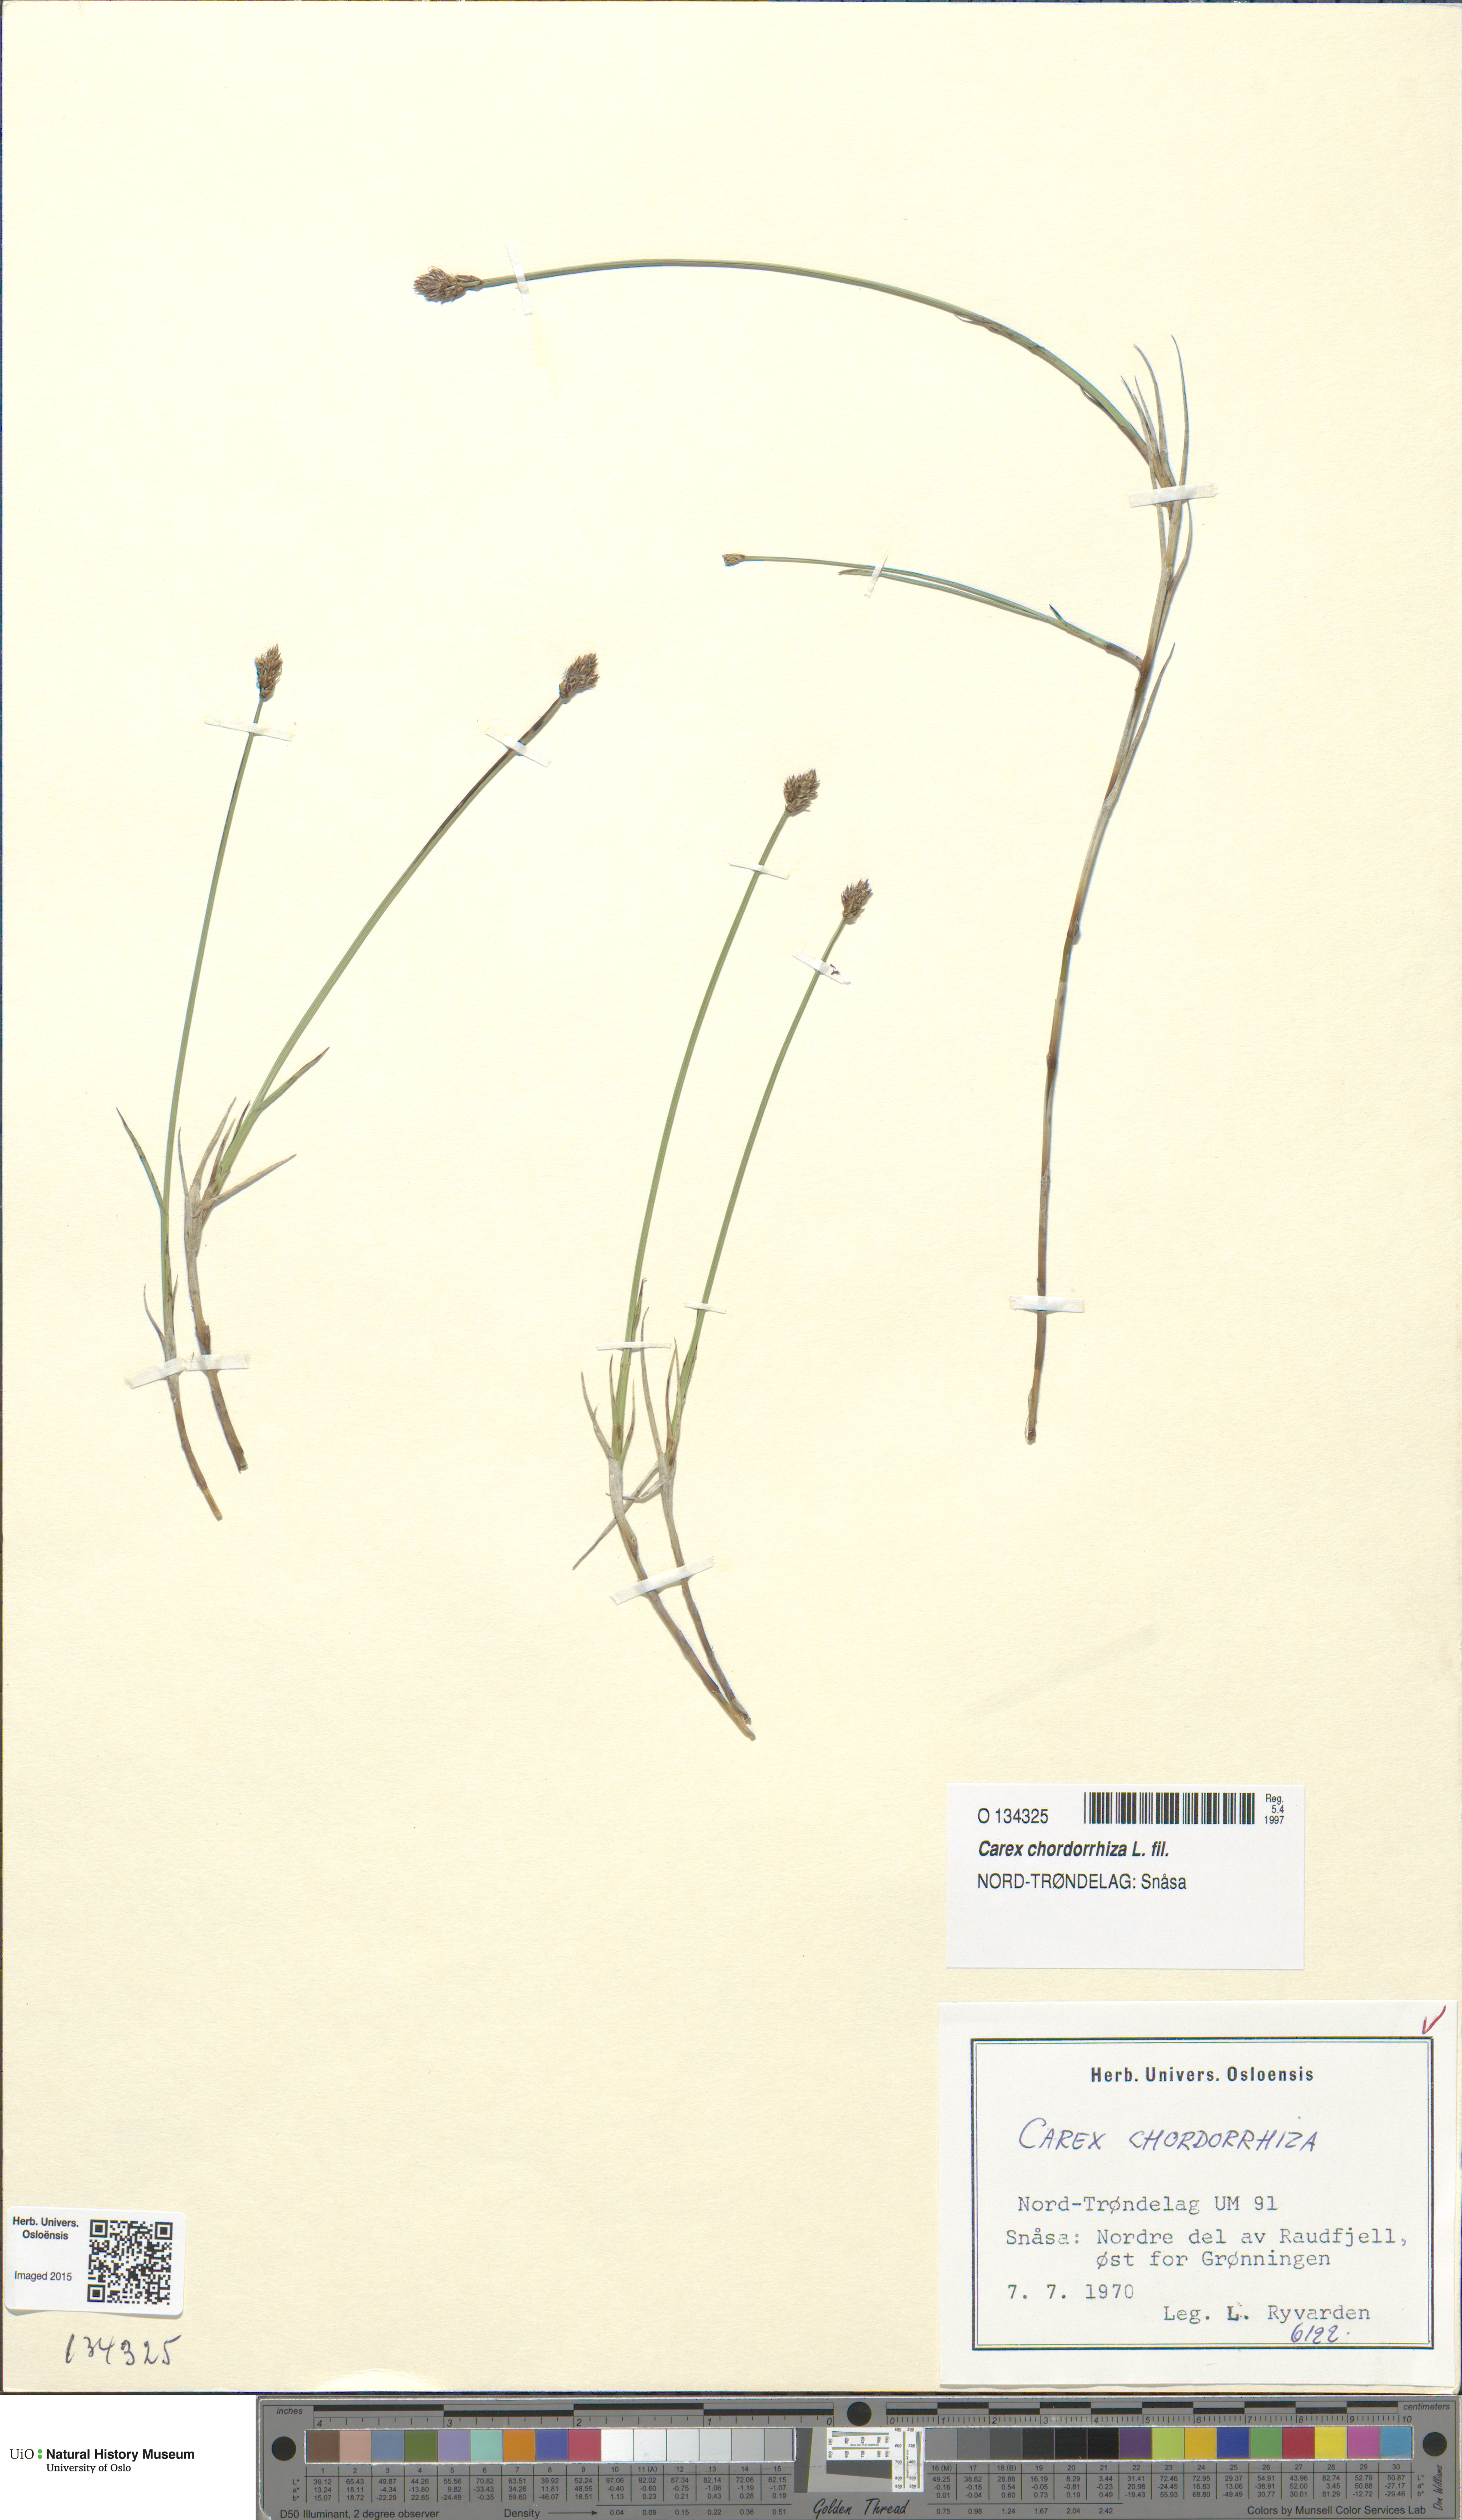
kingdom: Plantae
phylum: Tracheophyta
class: Liliopsida
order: Poales
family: Cyperaceae
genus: Carex
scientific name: Carex chordorrhiza
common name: String sedge
